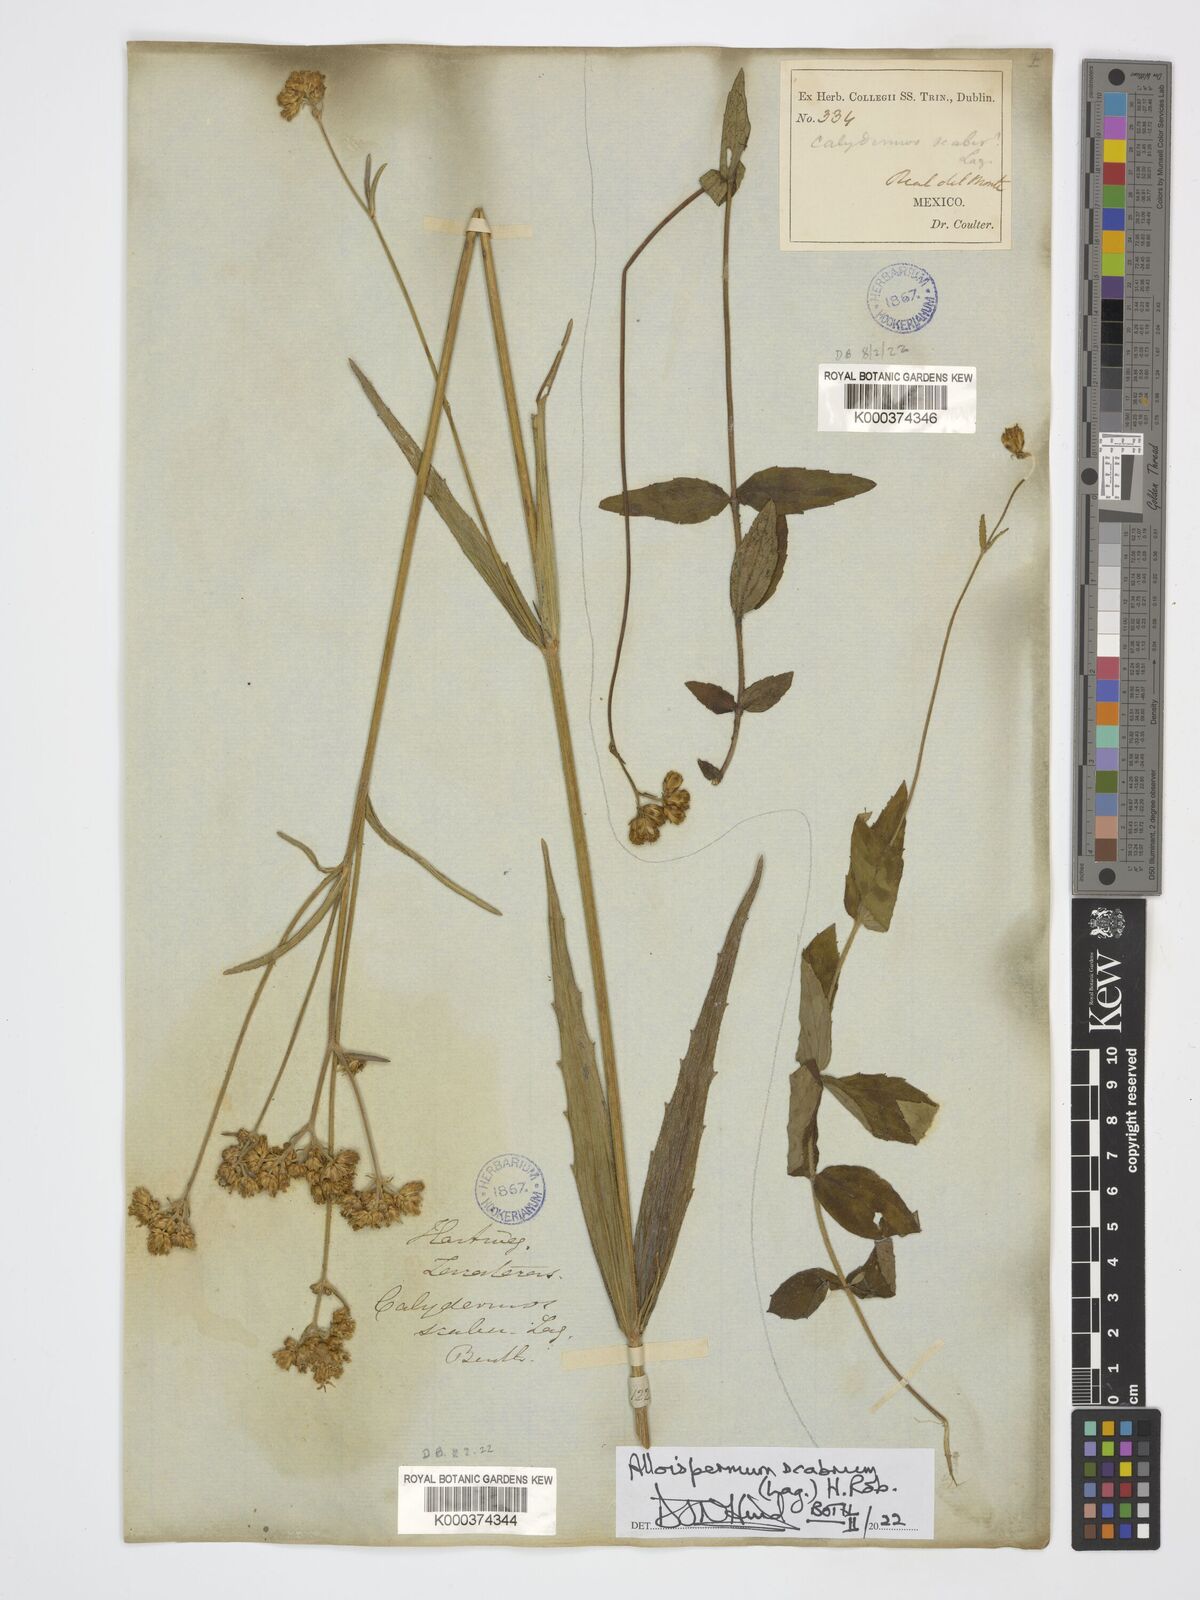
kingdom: Plantae
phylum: Tracheophyta
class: Magnoliopsida
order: Asterales
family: Asteraceae
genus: Alloispermum
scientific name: Alloispermum scabrum
